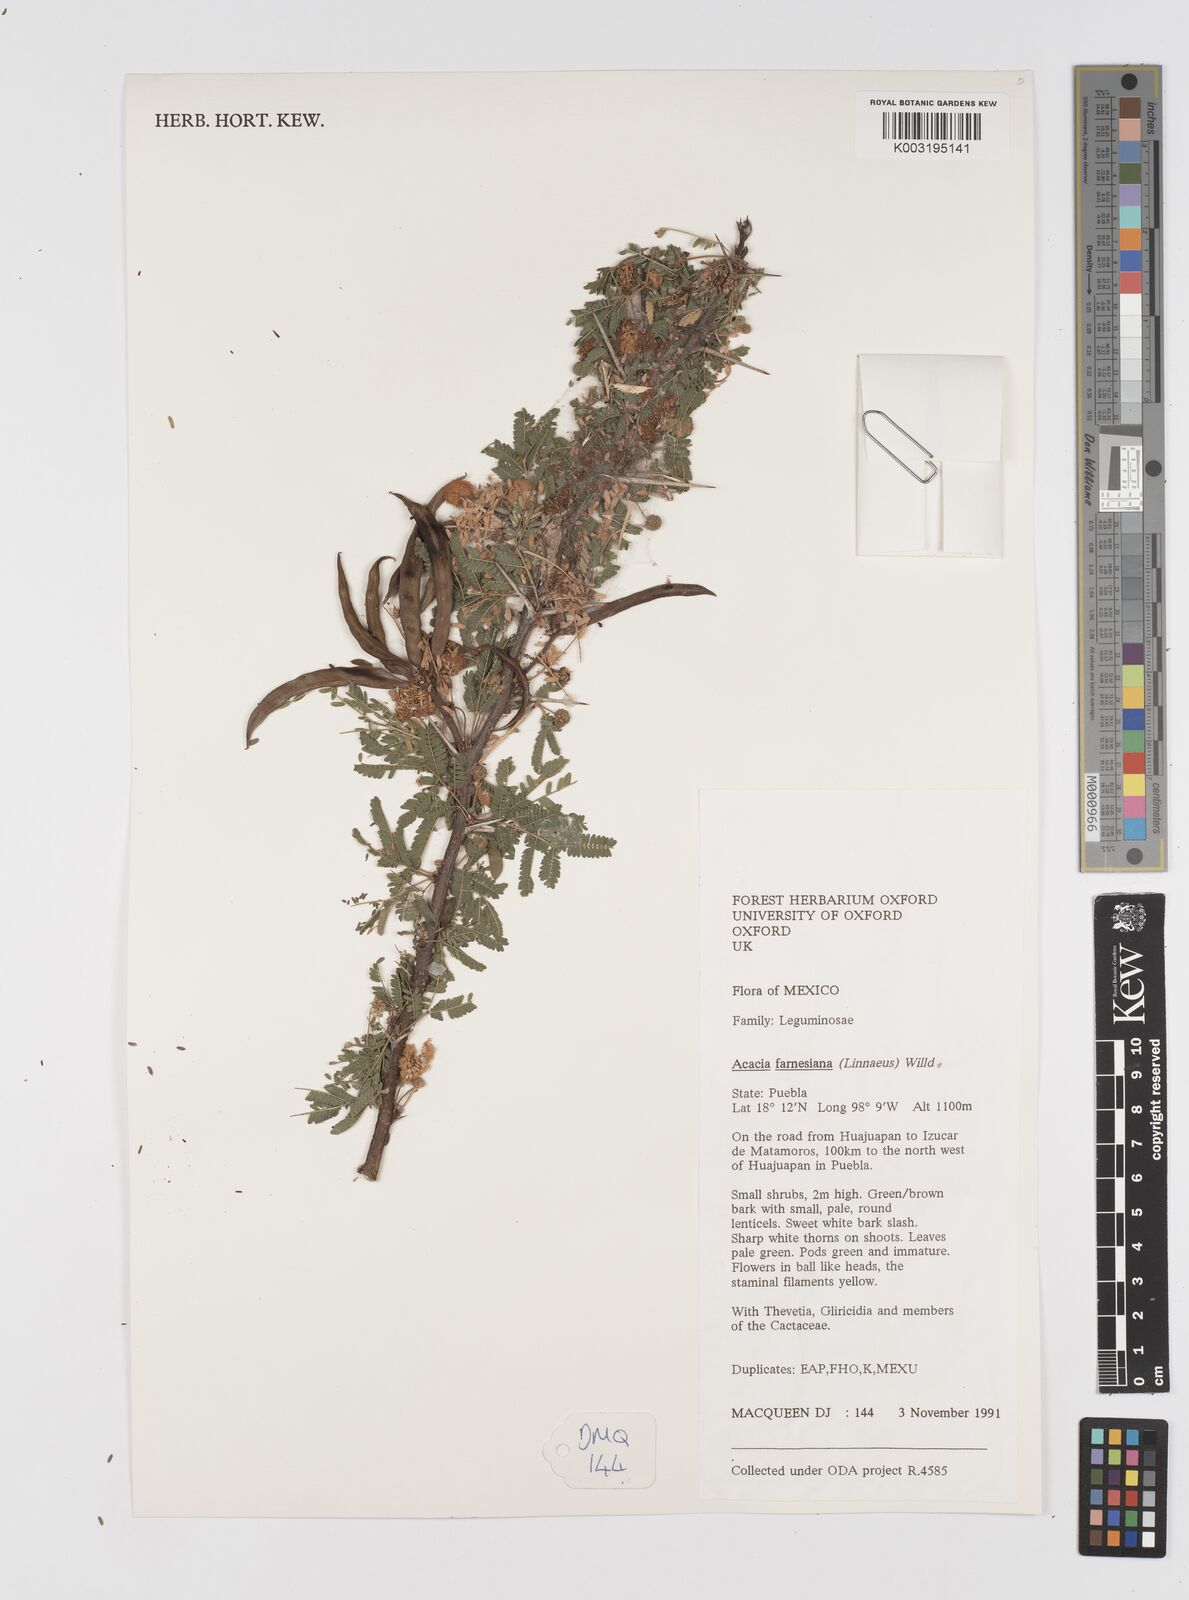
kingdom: Plantae
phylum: Tracheophyta
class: Magnoliopsida
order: Fabales
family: Fabaceae
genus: Vachellia
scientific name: Vachellia farnesiana
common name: Sweet acacia
